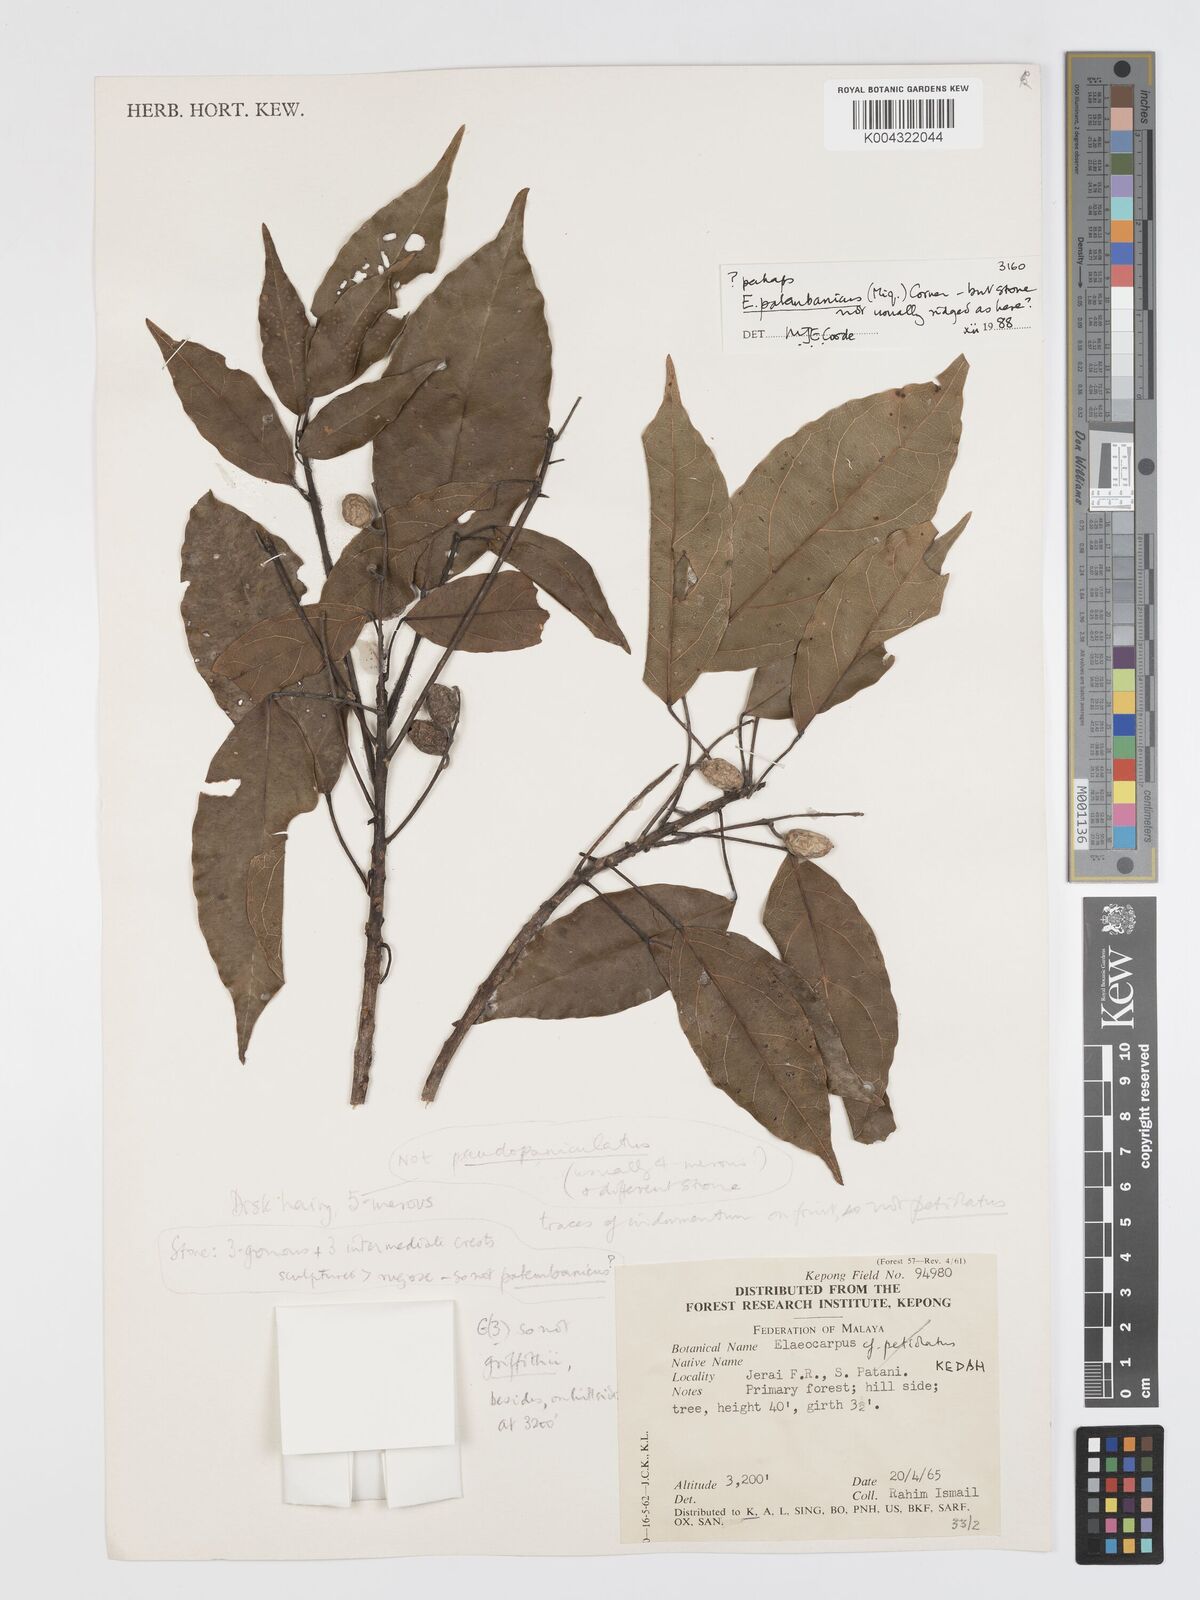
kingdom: Plantae
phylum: Tracheophyta
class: Magnoliopsida
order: Oxalidales
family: Elaeocarpaceae
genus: Elaeocarpus
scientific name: Elaeocarpus palembanicus
